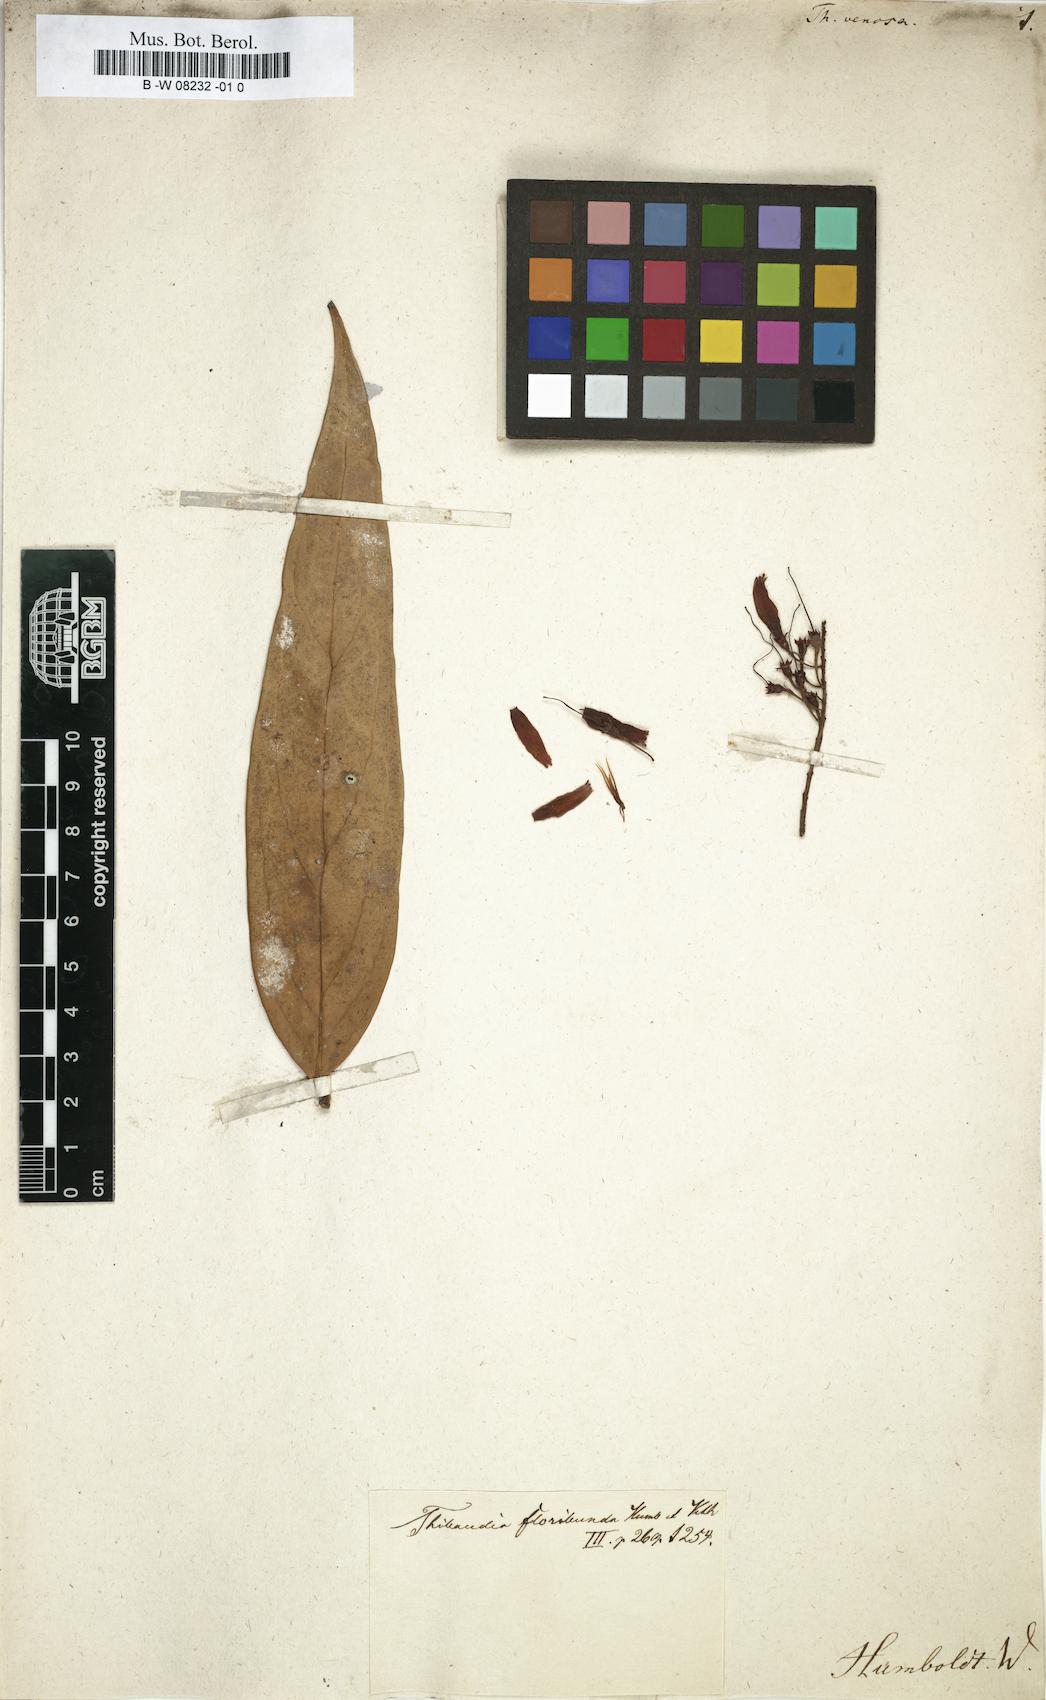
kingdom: Plantae
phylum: Tracheophyta
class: Magnoliopsida
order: Ericales
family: Ericaceae
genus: Thibaudia
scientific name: Thibaudia
